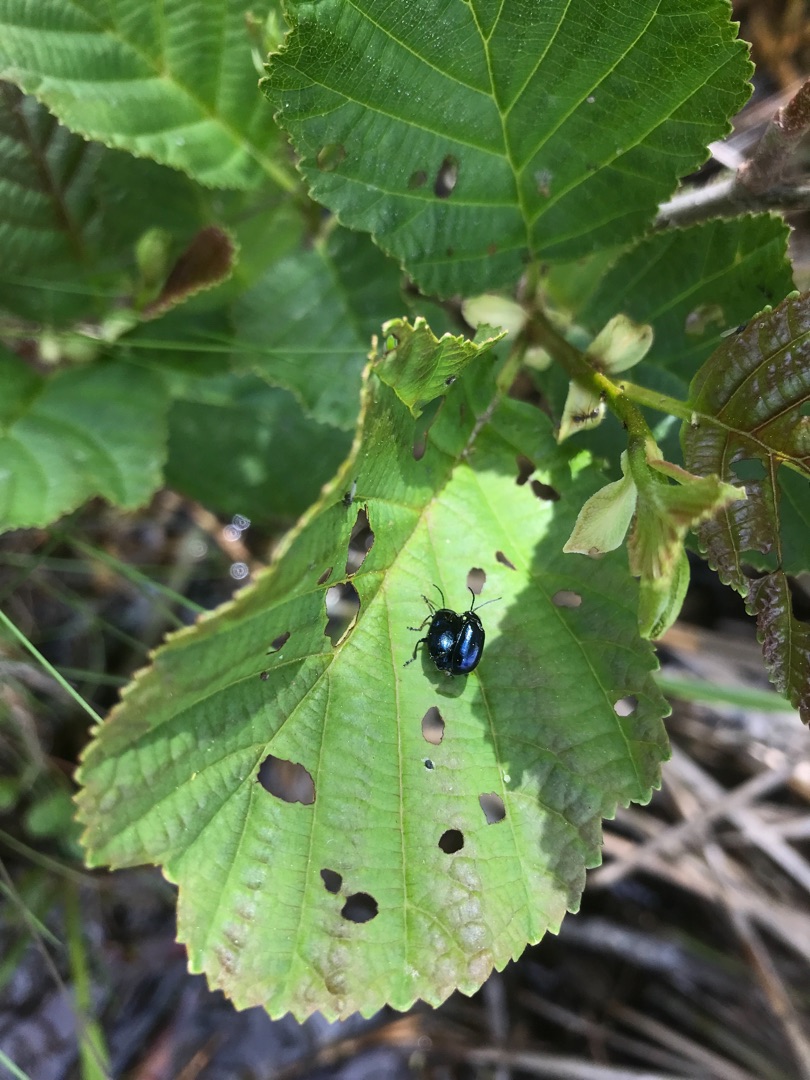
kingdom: Animalia
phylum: Arthropoda
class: Insecta
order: Coleoptera
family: Chrysomelidae
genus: Agelastica
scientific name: Agelastica alni
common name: Ellebladbille
